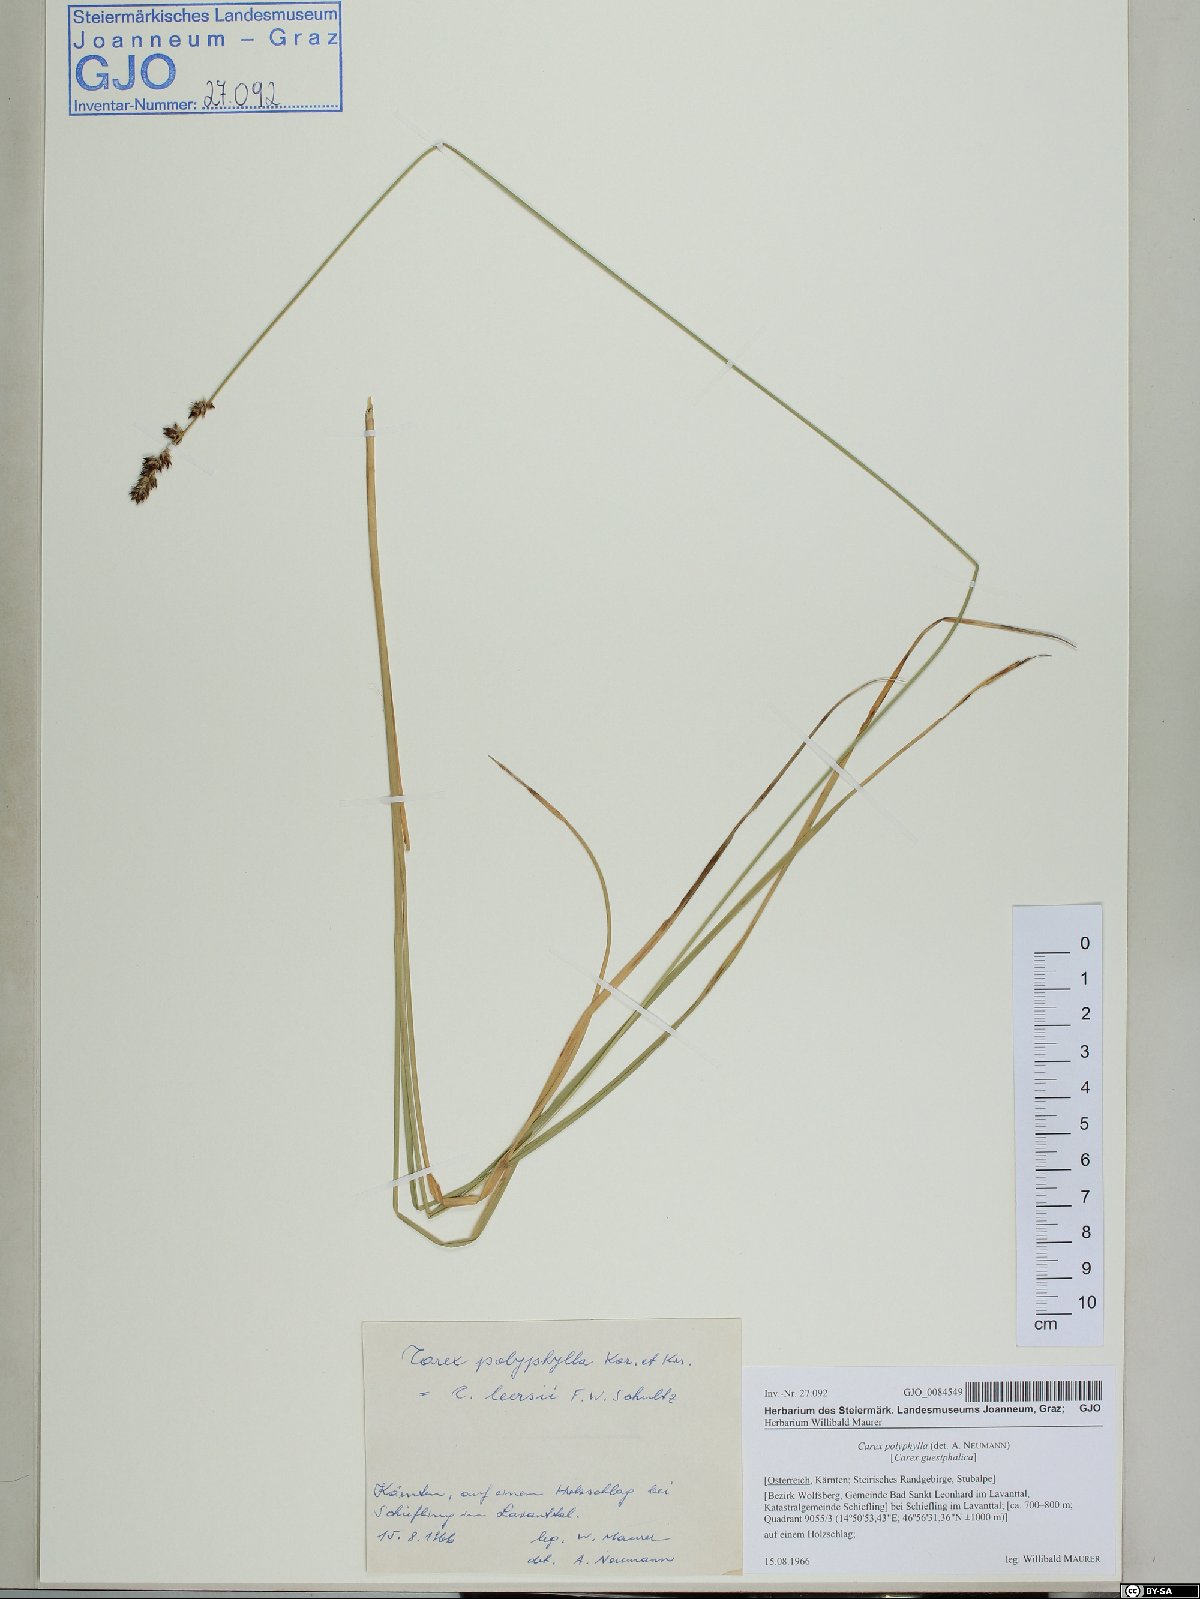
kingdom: Plantae
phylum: Tracheophyta
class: Liliopsida
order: Poales
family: Cyperaceae
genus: Carex
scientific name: Carex polyphylla
